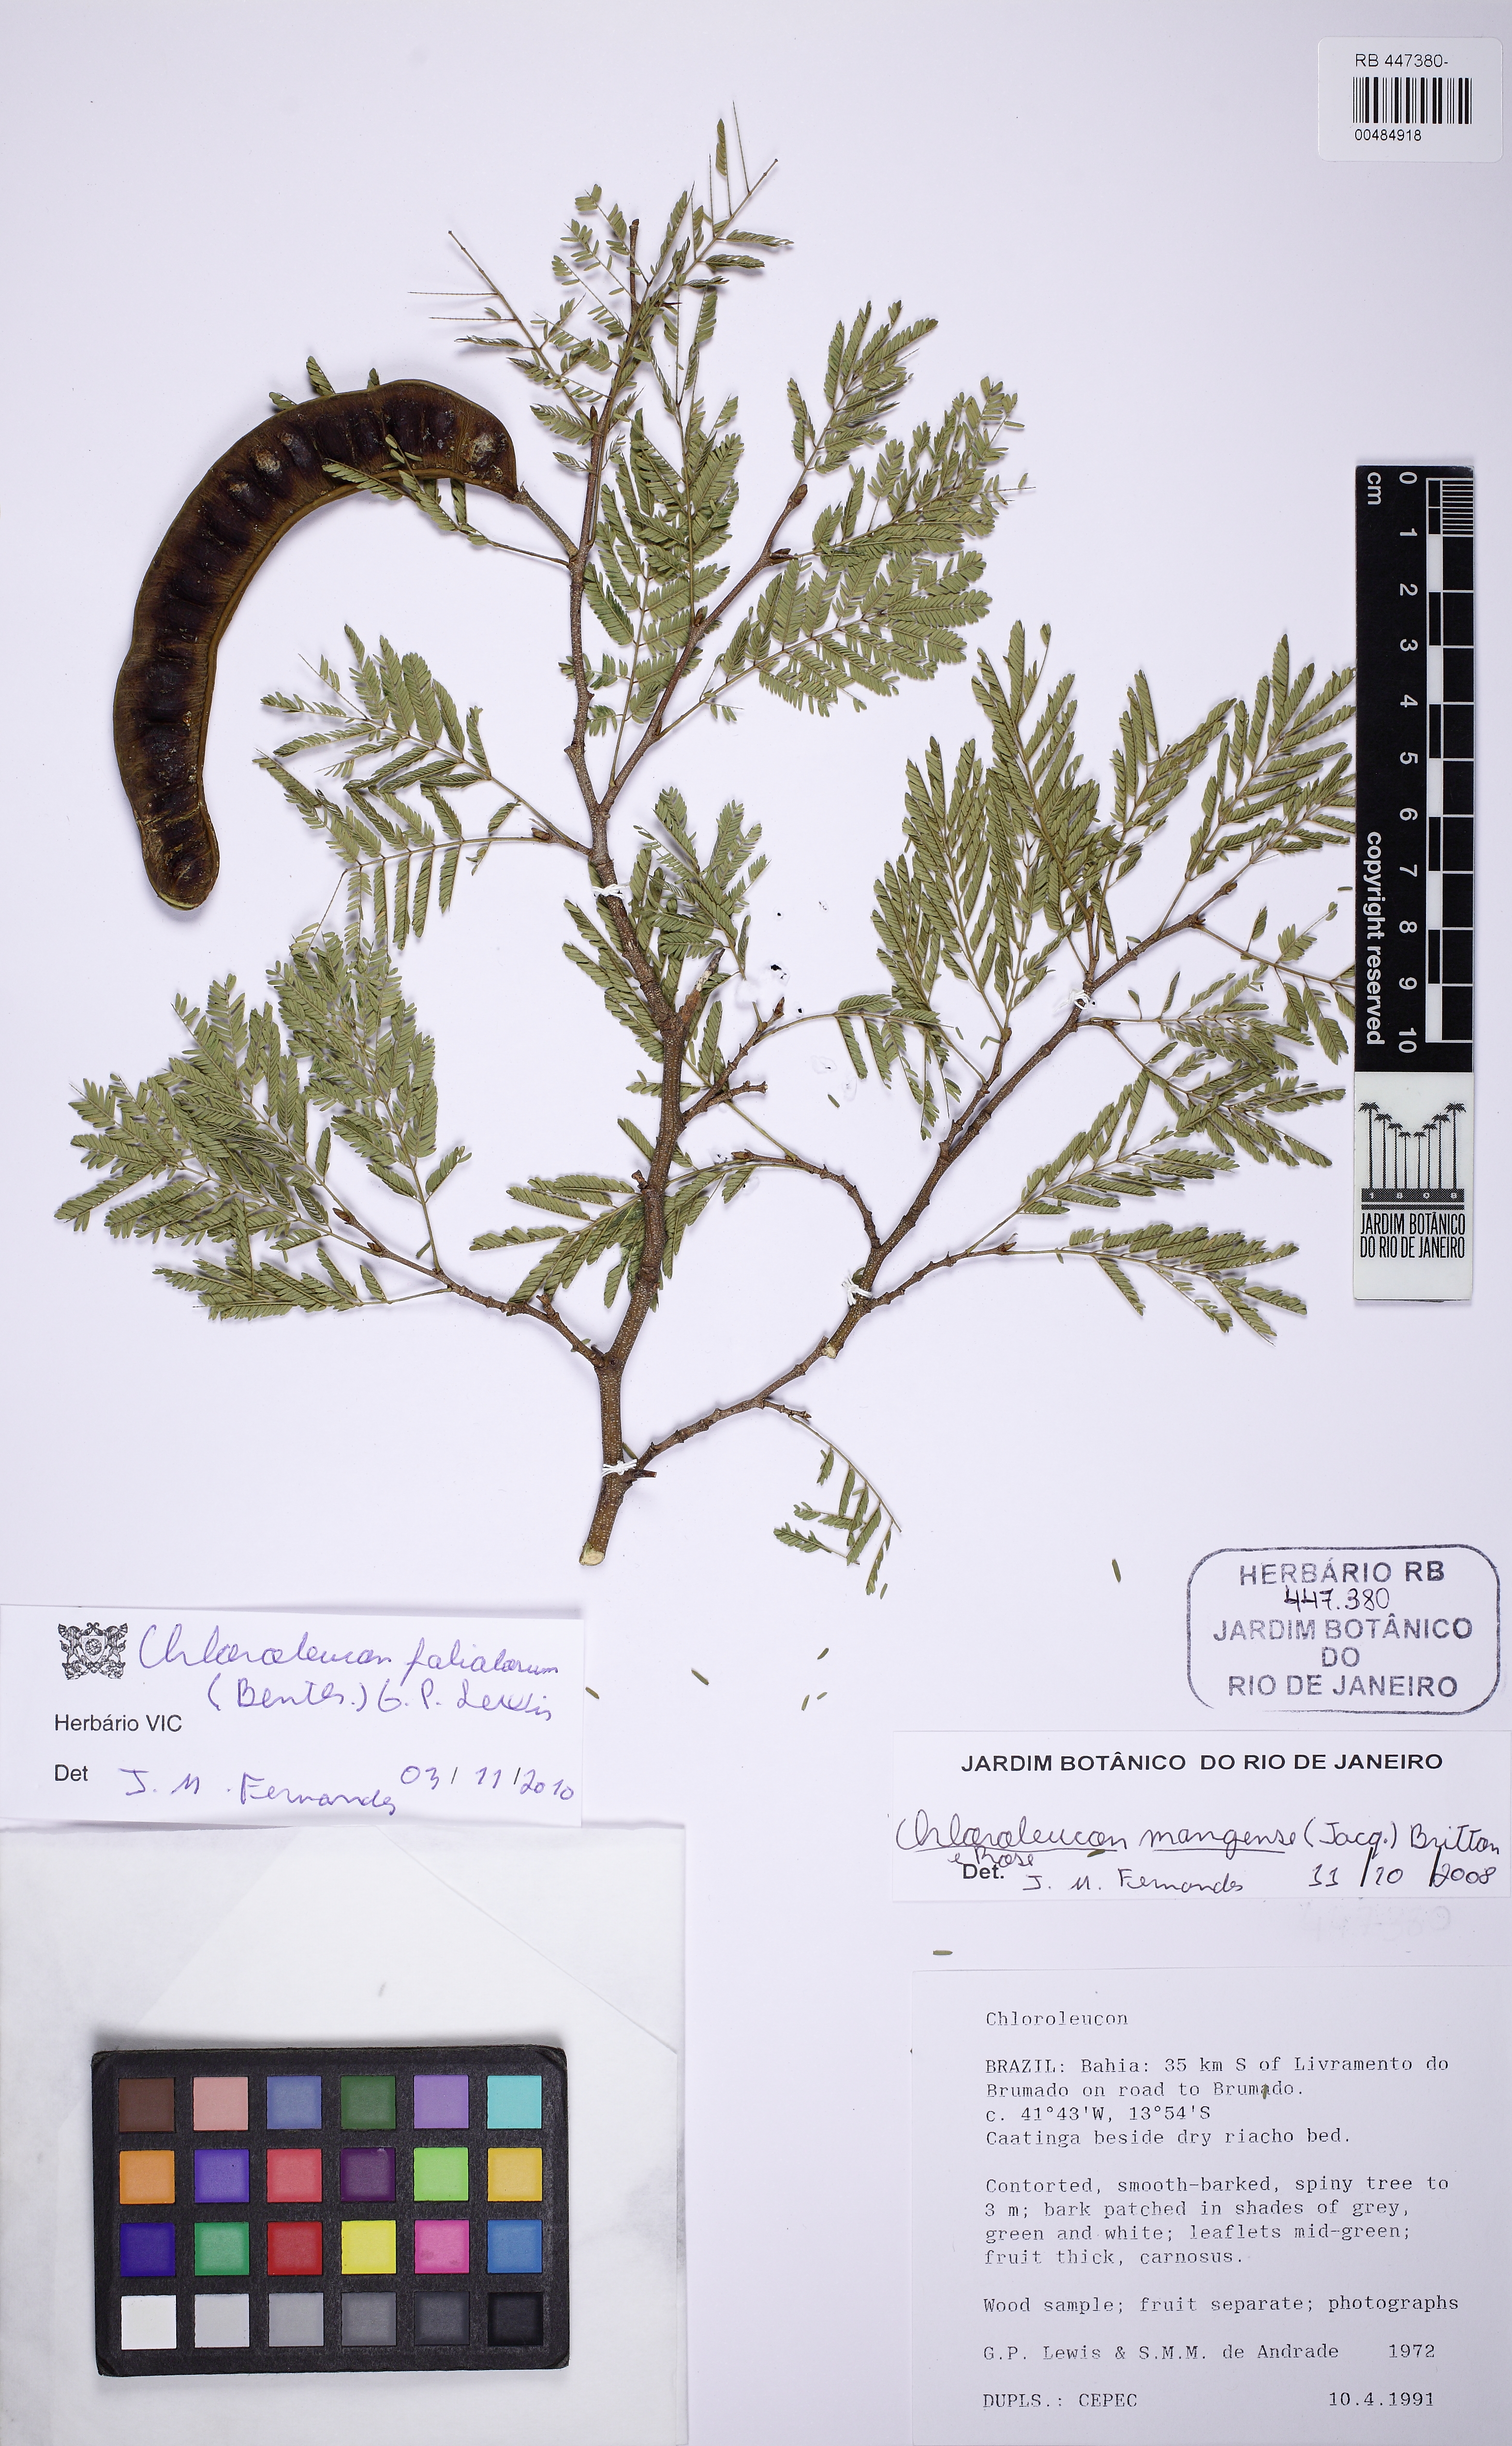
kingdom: Plantae
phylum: Tracheophyta
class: Magnoliopsida
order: Fabales
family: Fabaceae
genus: Chloroleucon
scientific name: Chloroleucon foliolosum
